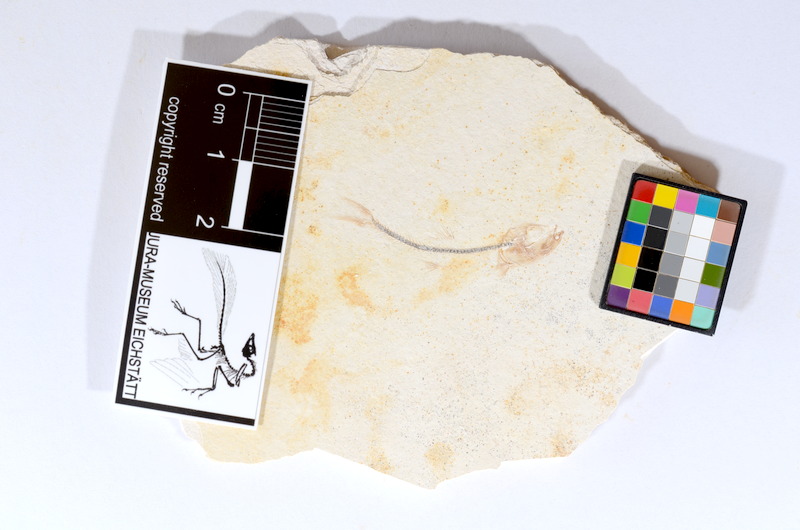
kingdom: Animalia
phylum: Chordata
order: Salmoniformes
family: Orthogonikleithridae
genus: Orthogonikleithrus
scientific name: Orthogonikleithrus hoelli
